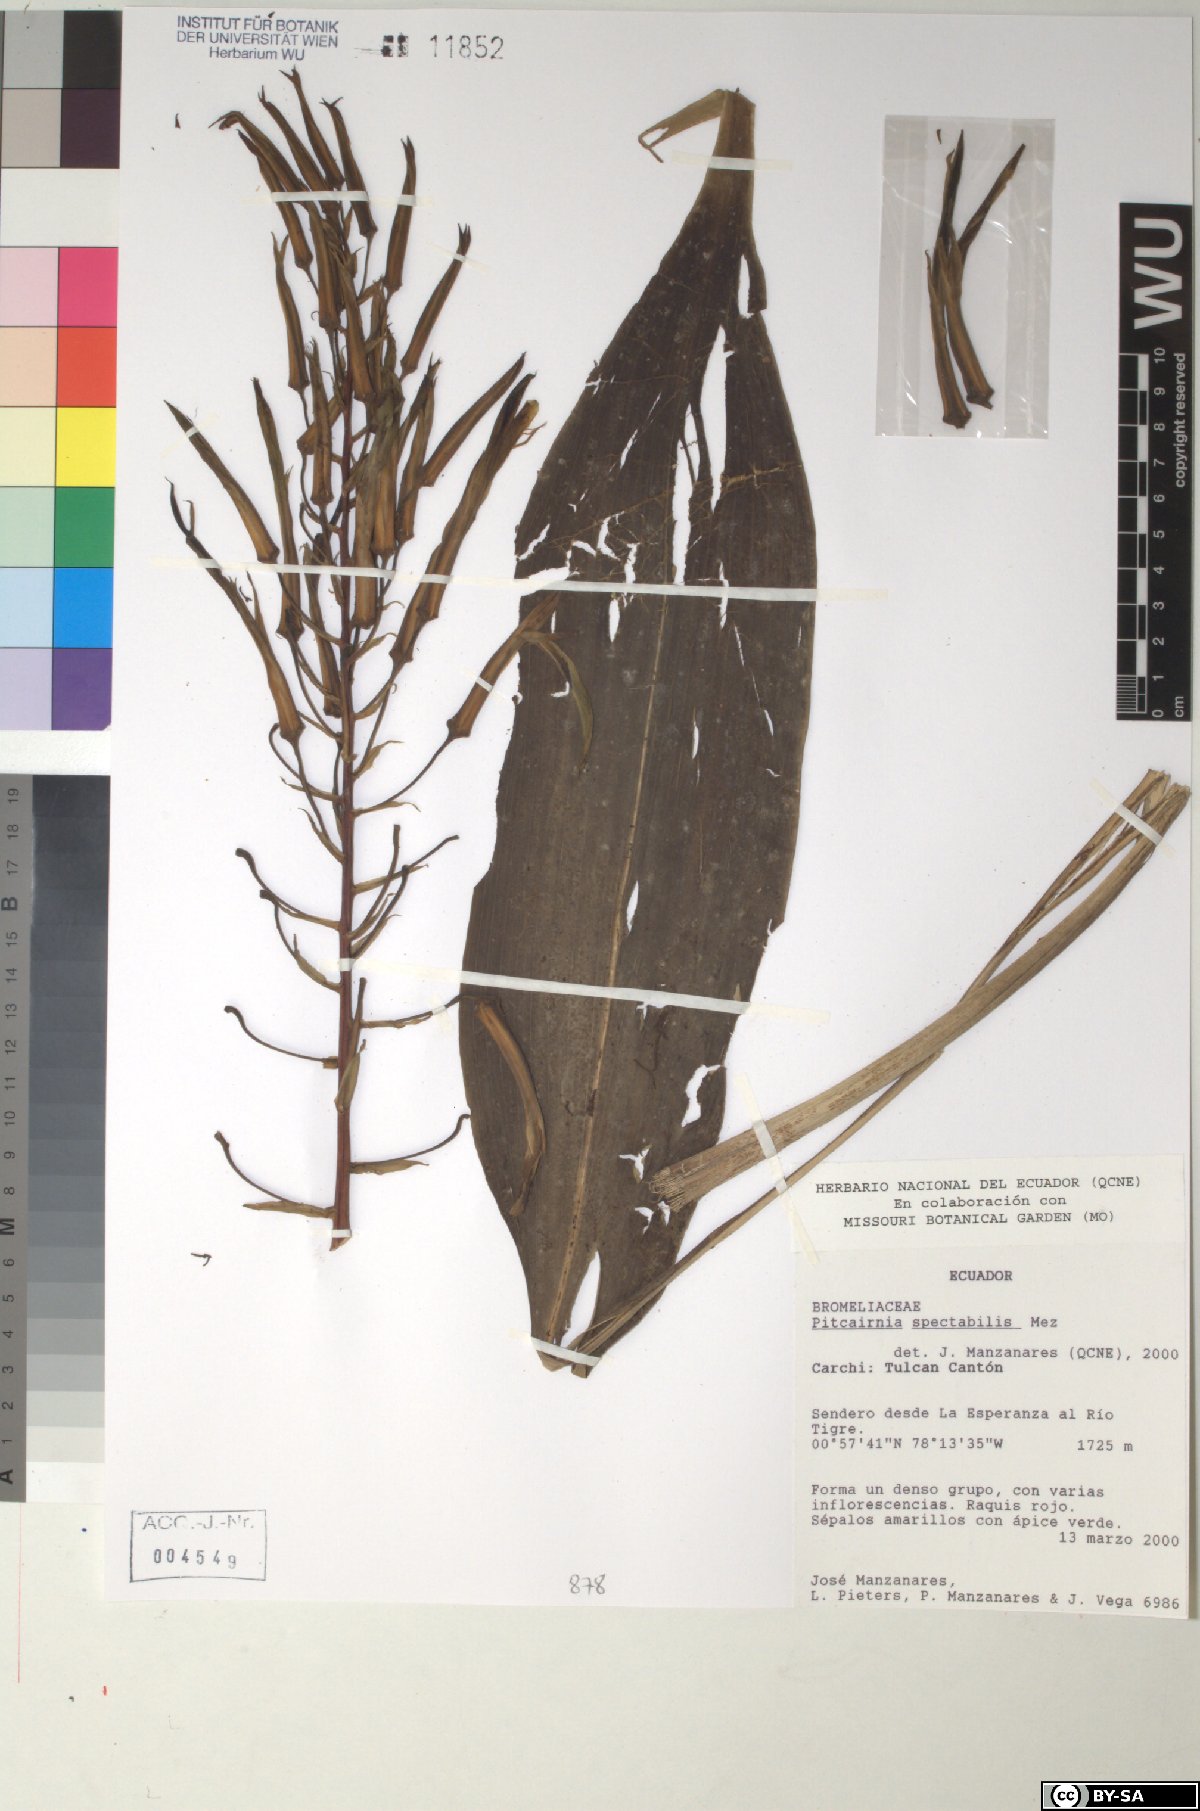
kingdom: Plantae
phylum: Tracheophyta
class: Liliopsida
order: Poales
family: Bromeliaceae
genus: Pitcairnia
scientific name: Pitcairnia spectabilis
